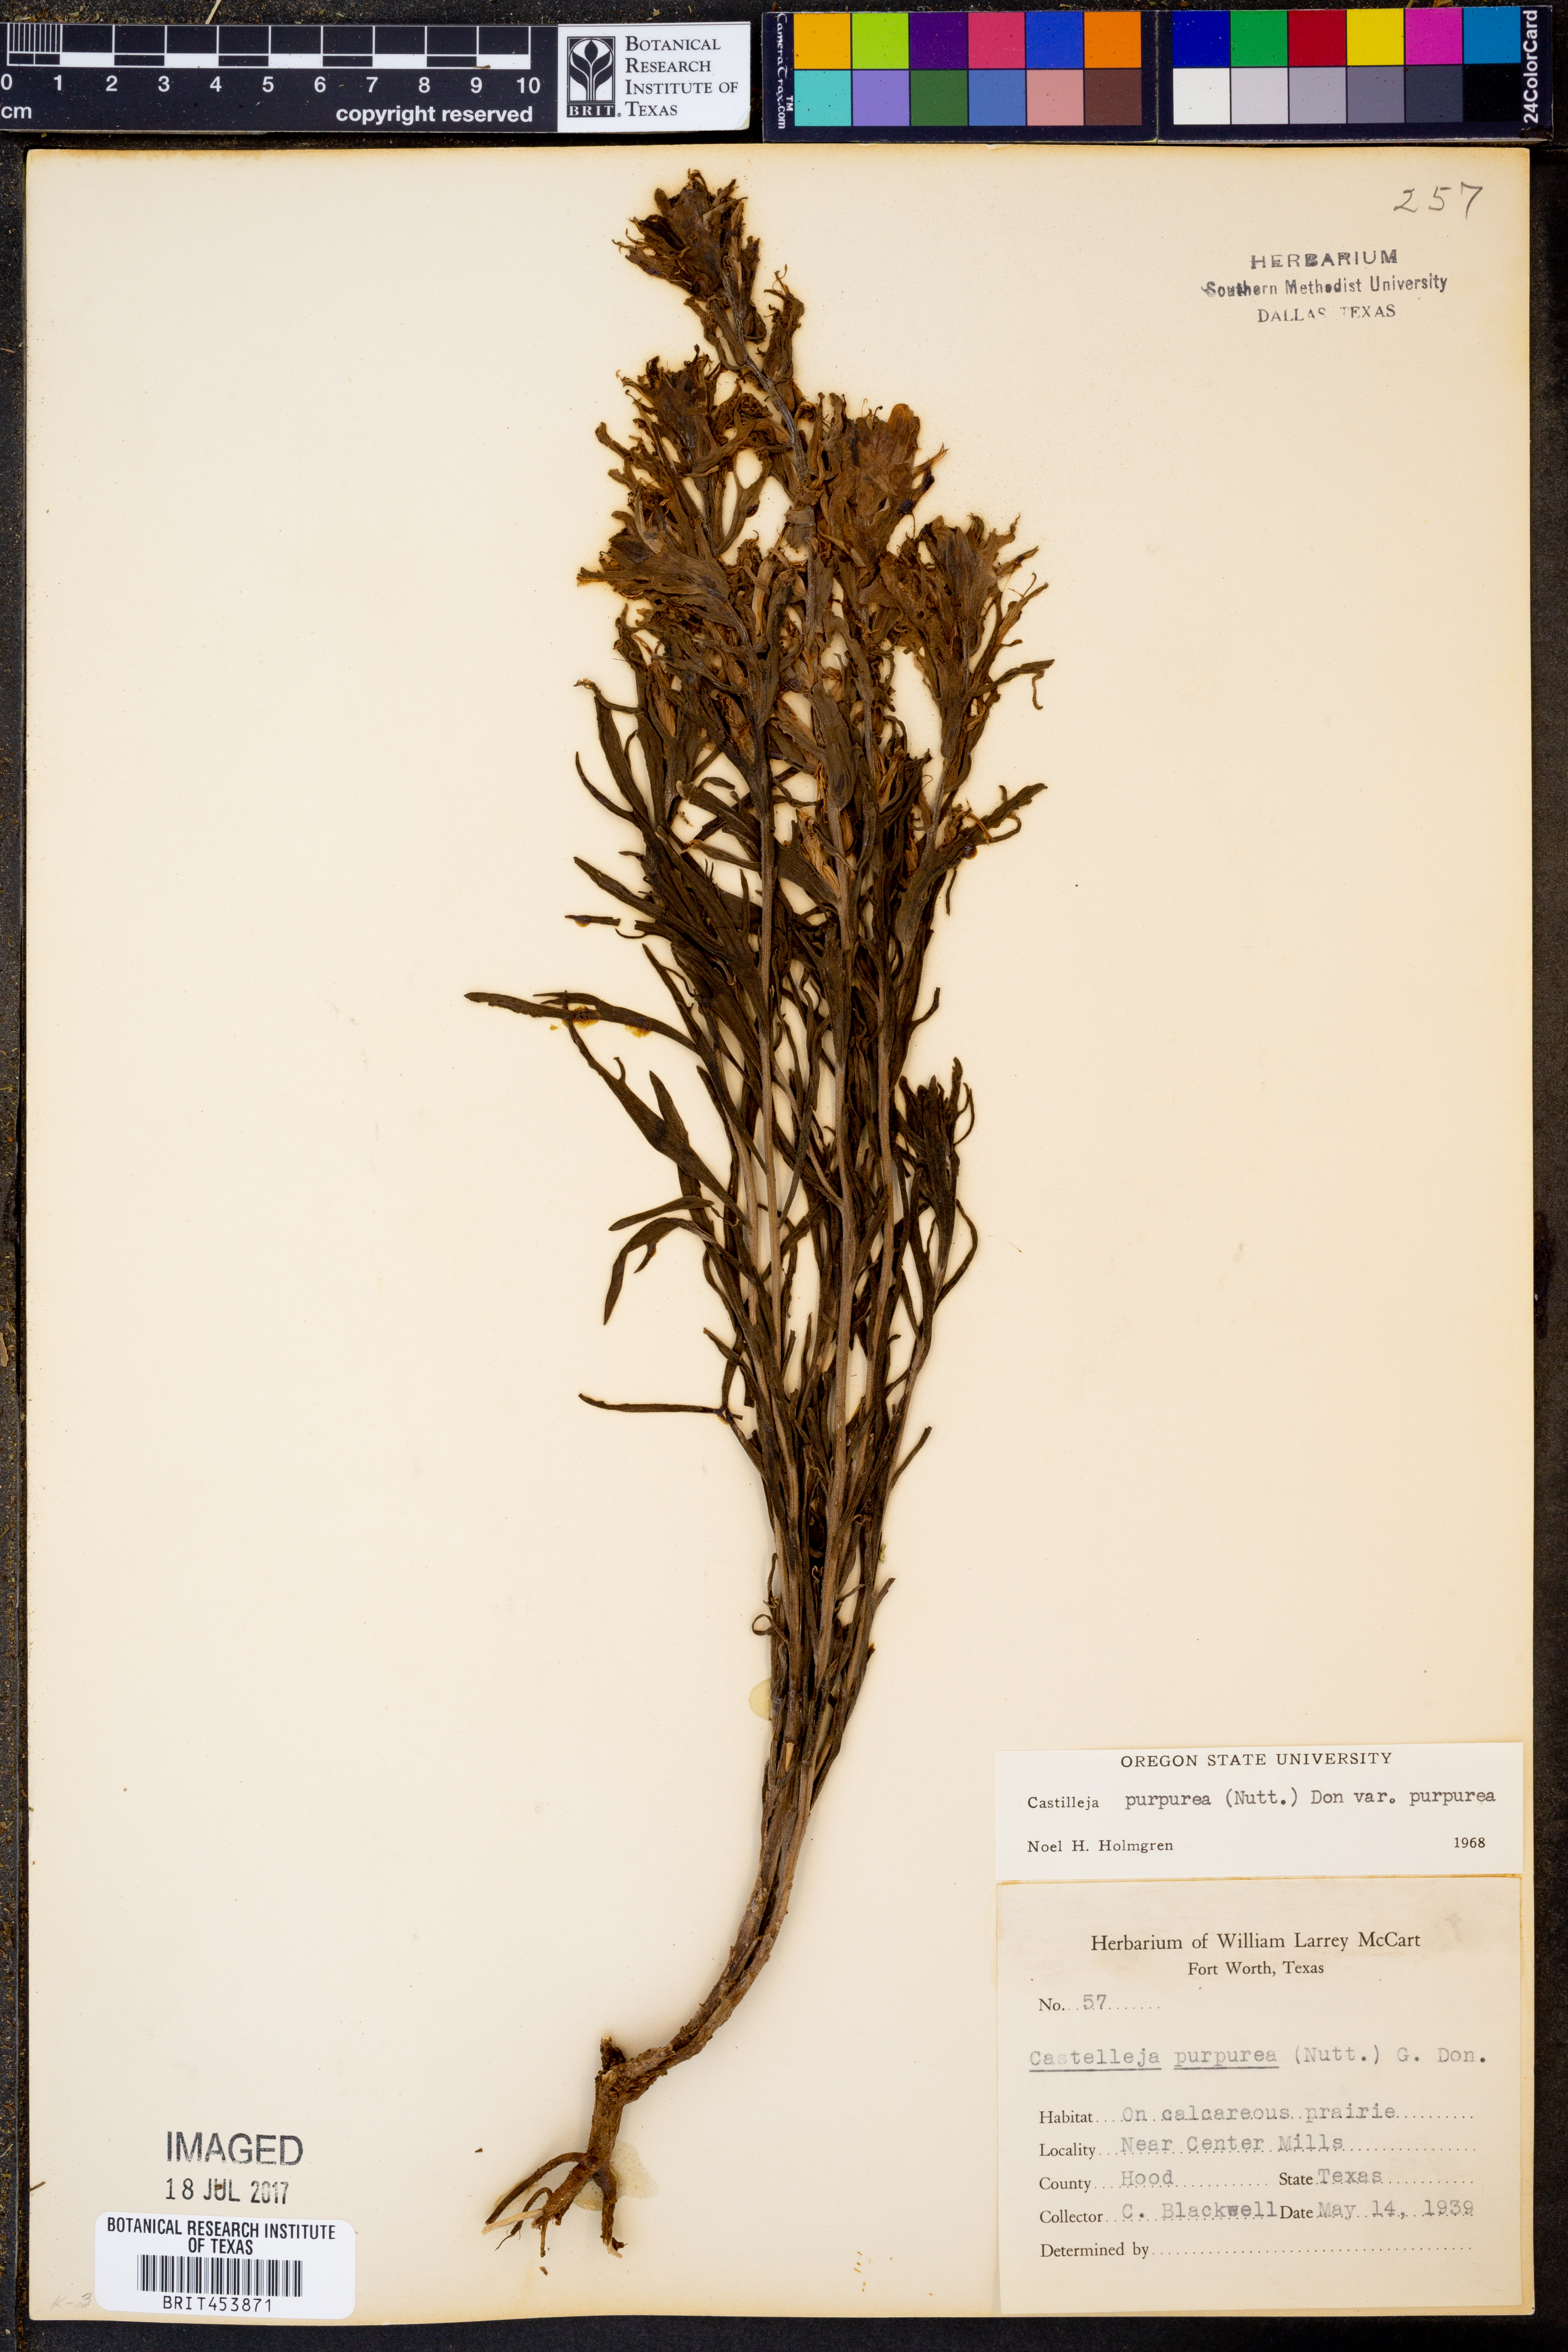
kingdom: Plantae
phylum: Tracheophyta
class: Magnoliopsida
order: Lamiales
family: Orobanchaceae
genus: Castilleja
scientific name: Castilleja purpurea
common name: Plains paintbrush
